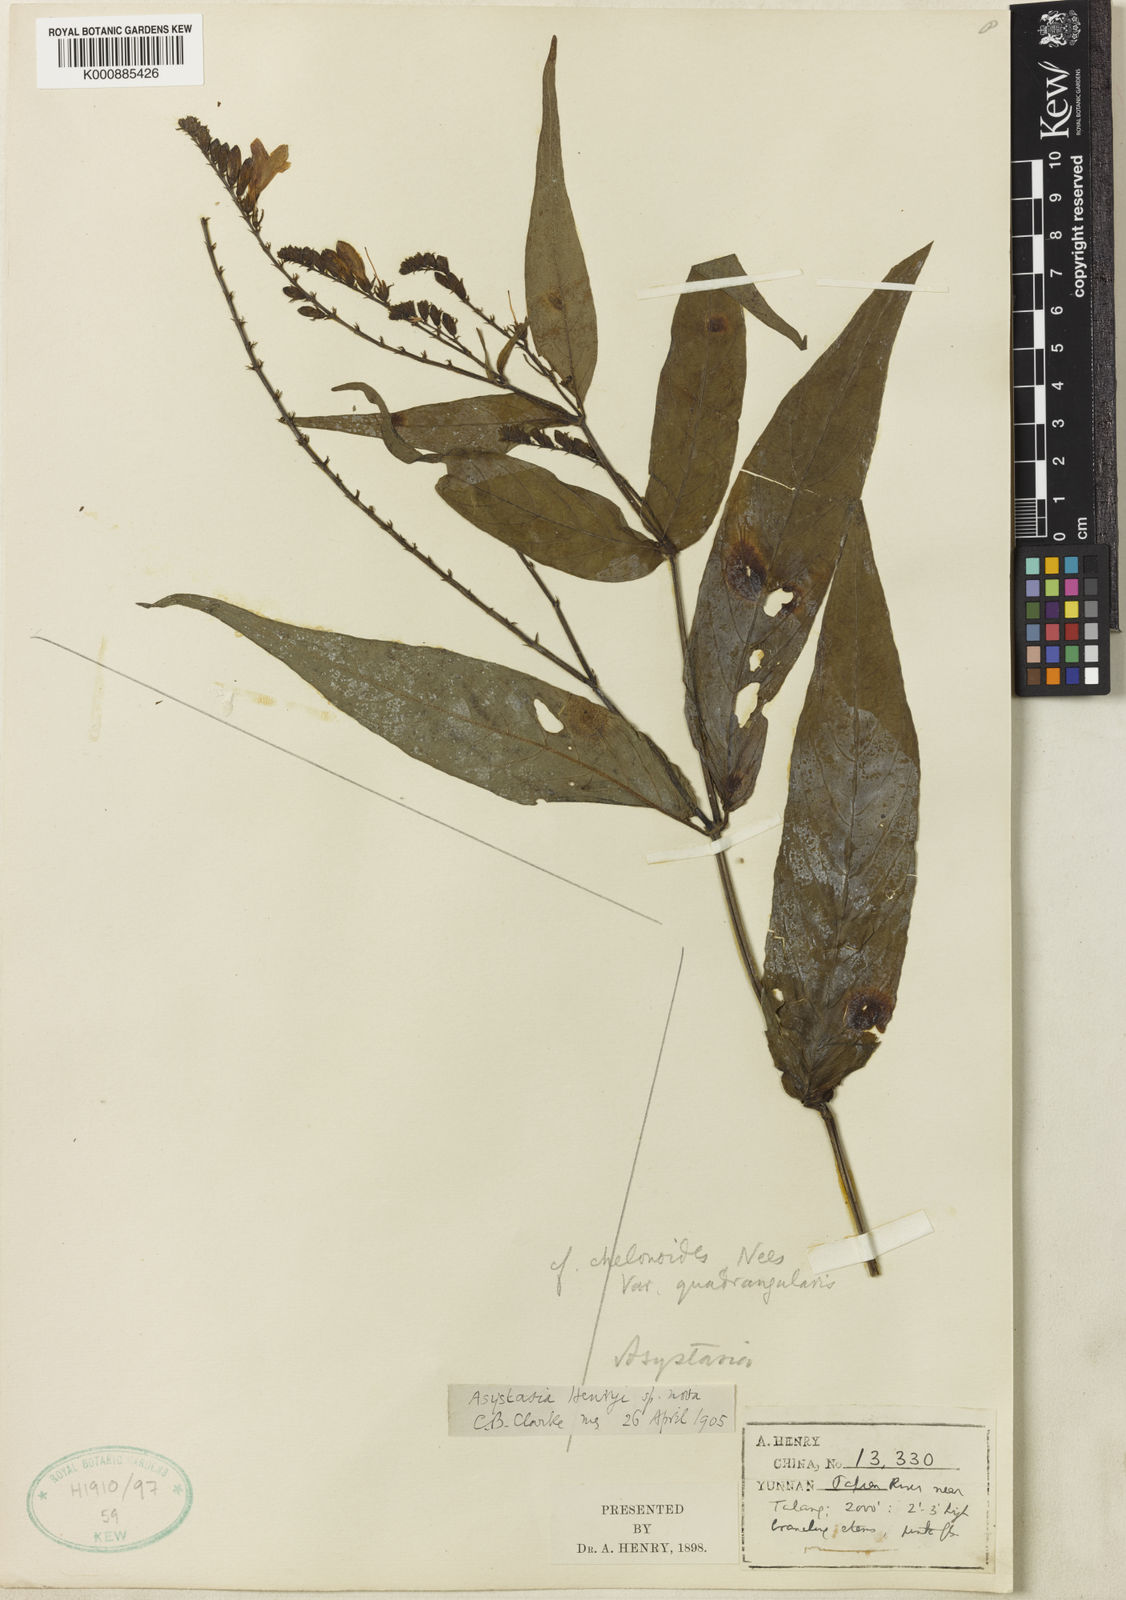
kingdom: Plantae
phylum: Tracheophyta
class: Magnoliopsida
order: Lamiales
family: Acanthaceae
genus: Asystasia
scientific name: Asystasia nemorum
